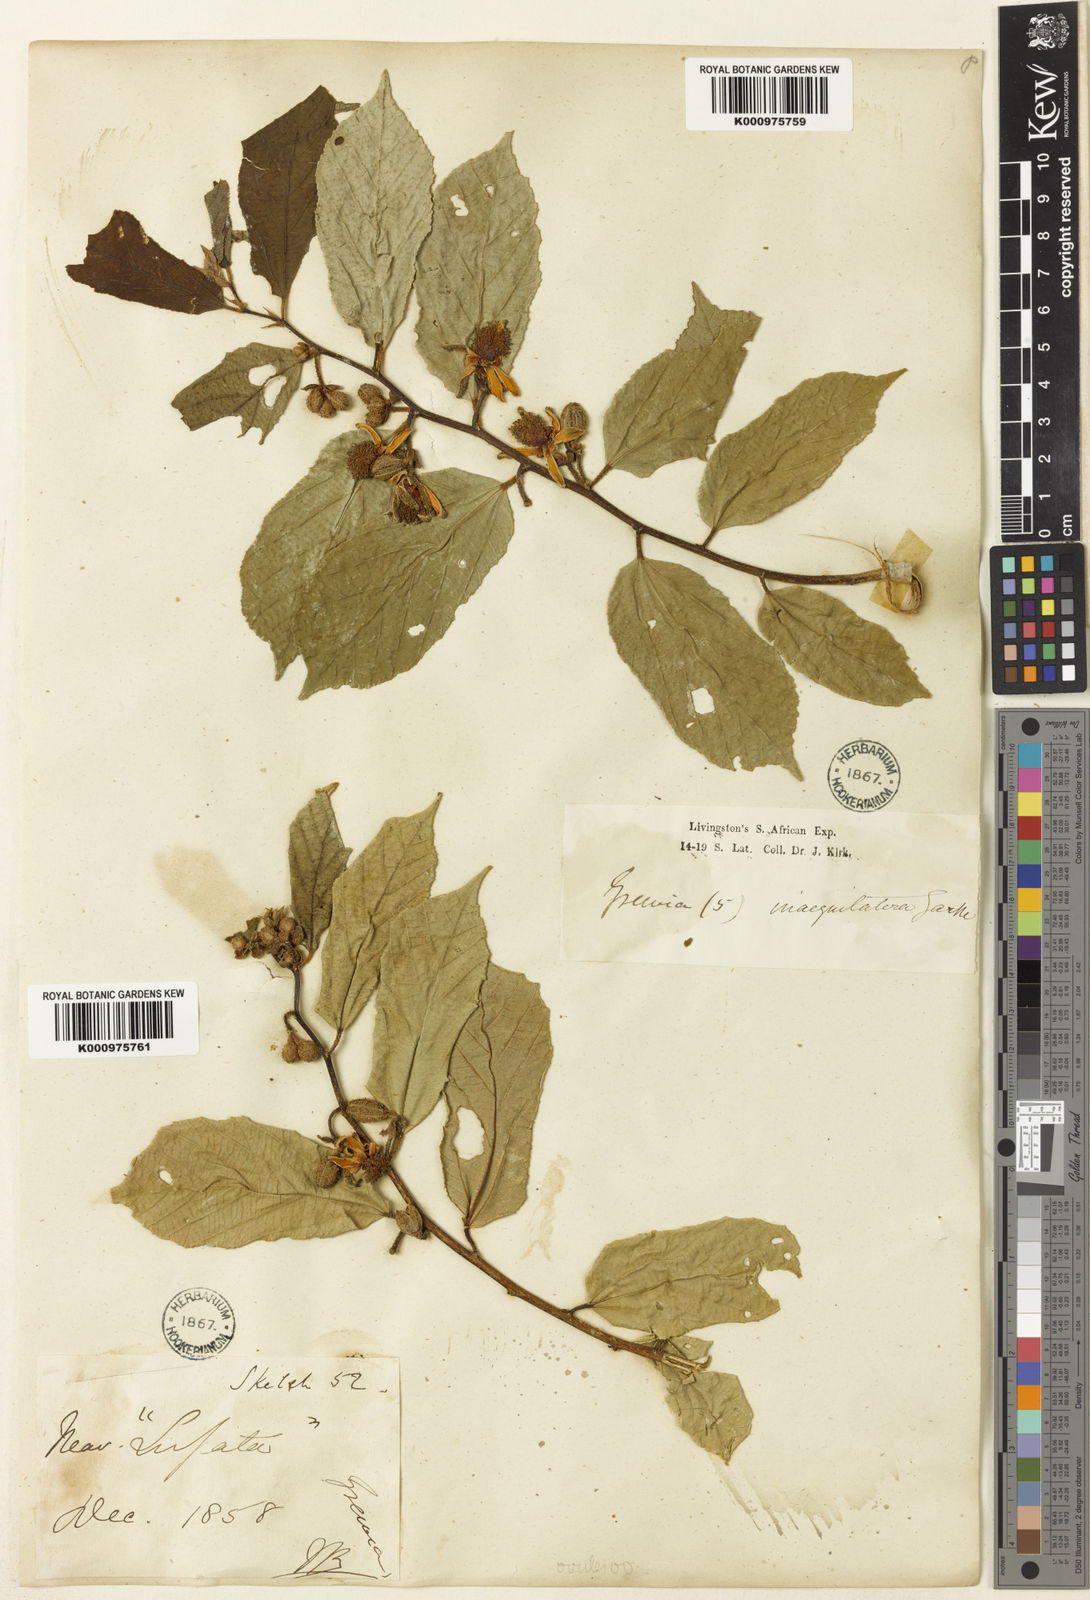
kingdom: Plantae
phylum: Tracheophyta
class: Magnoliopsida
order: Malvales
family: Malvaceae
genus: Grewia
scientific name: Grewia inaequilatera
